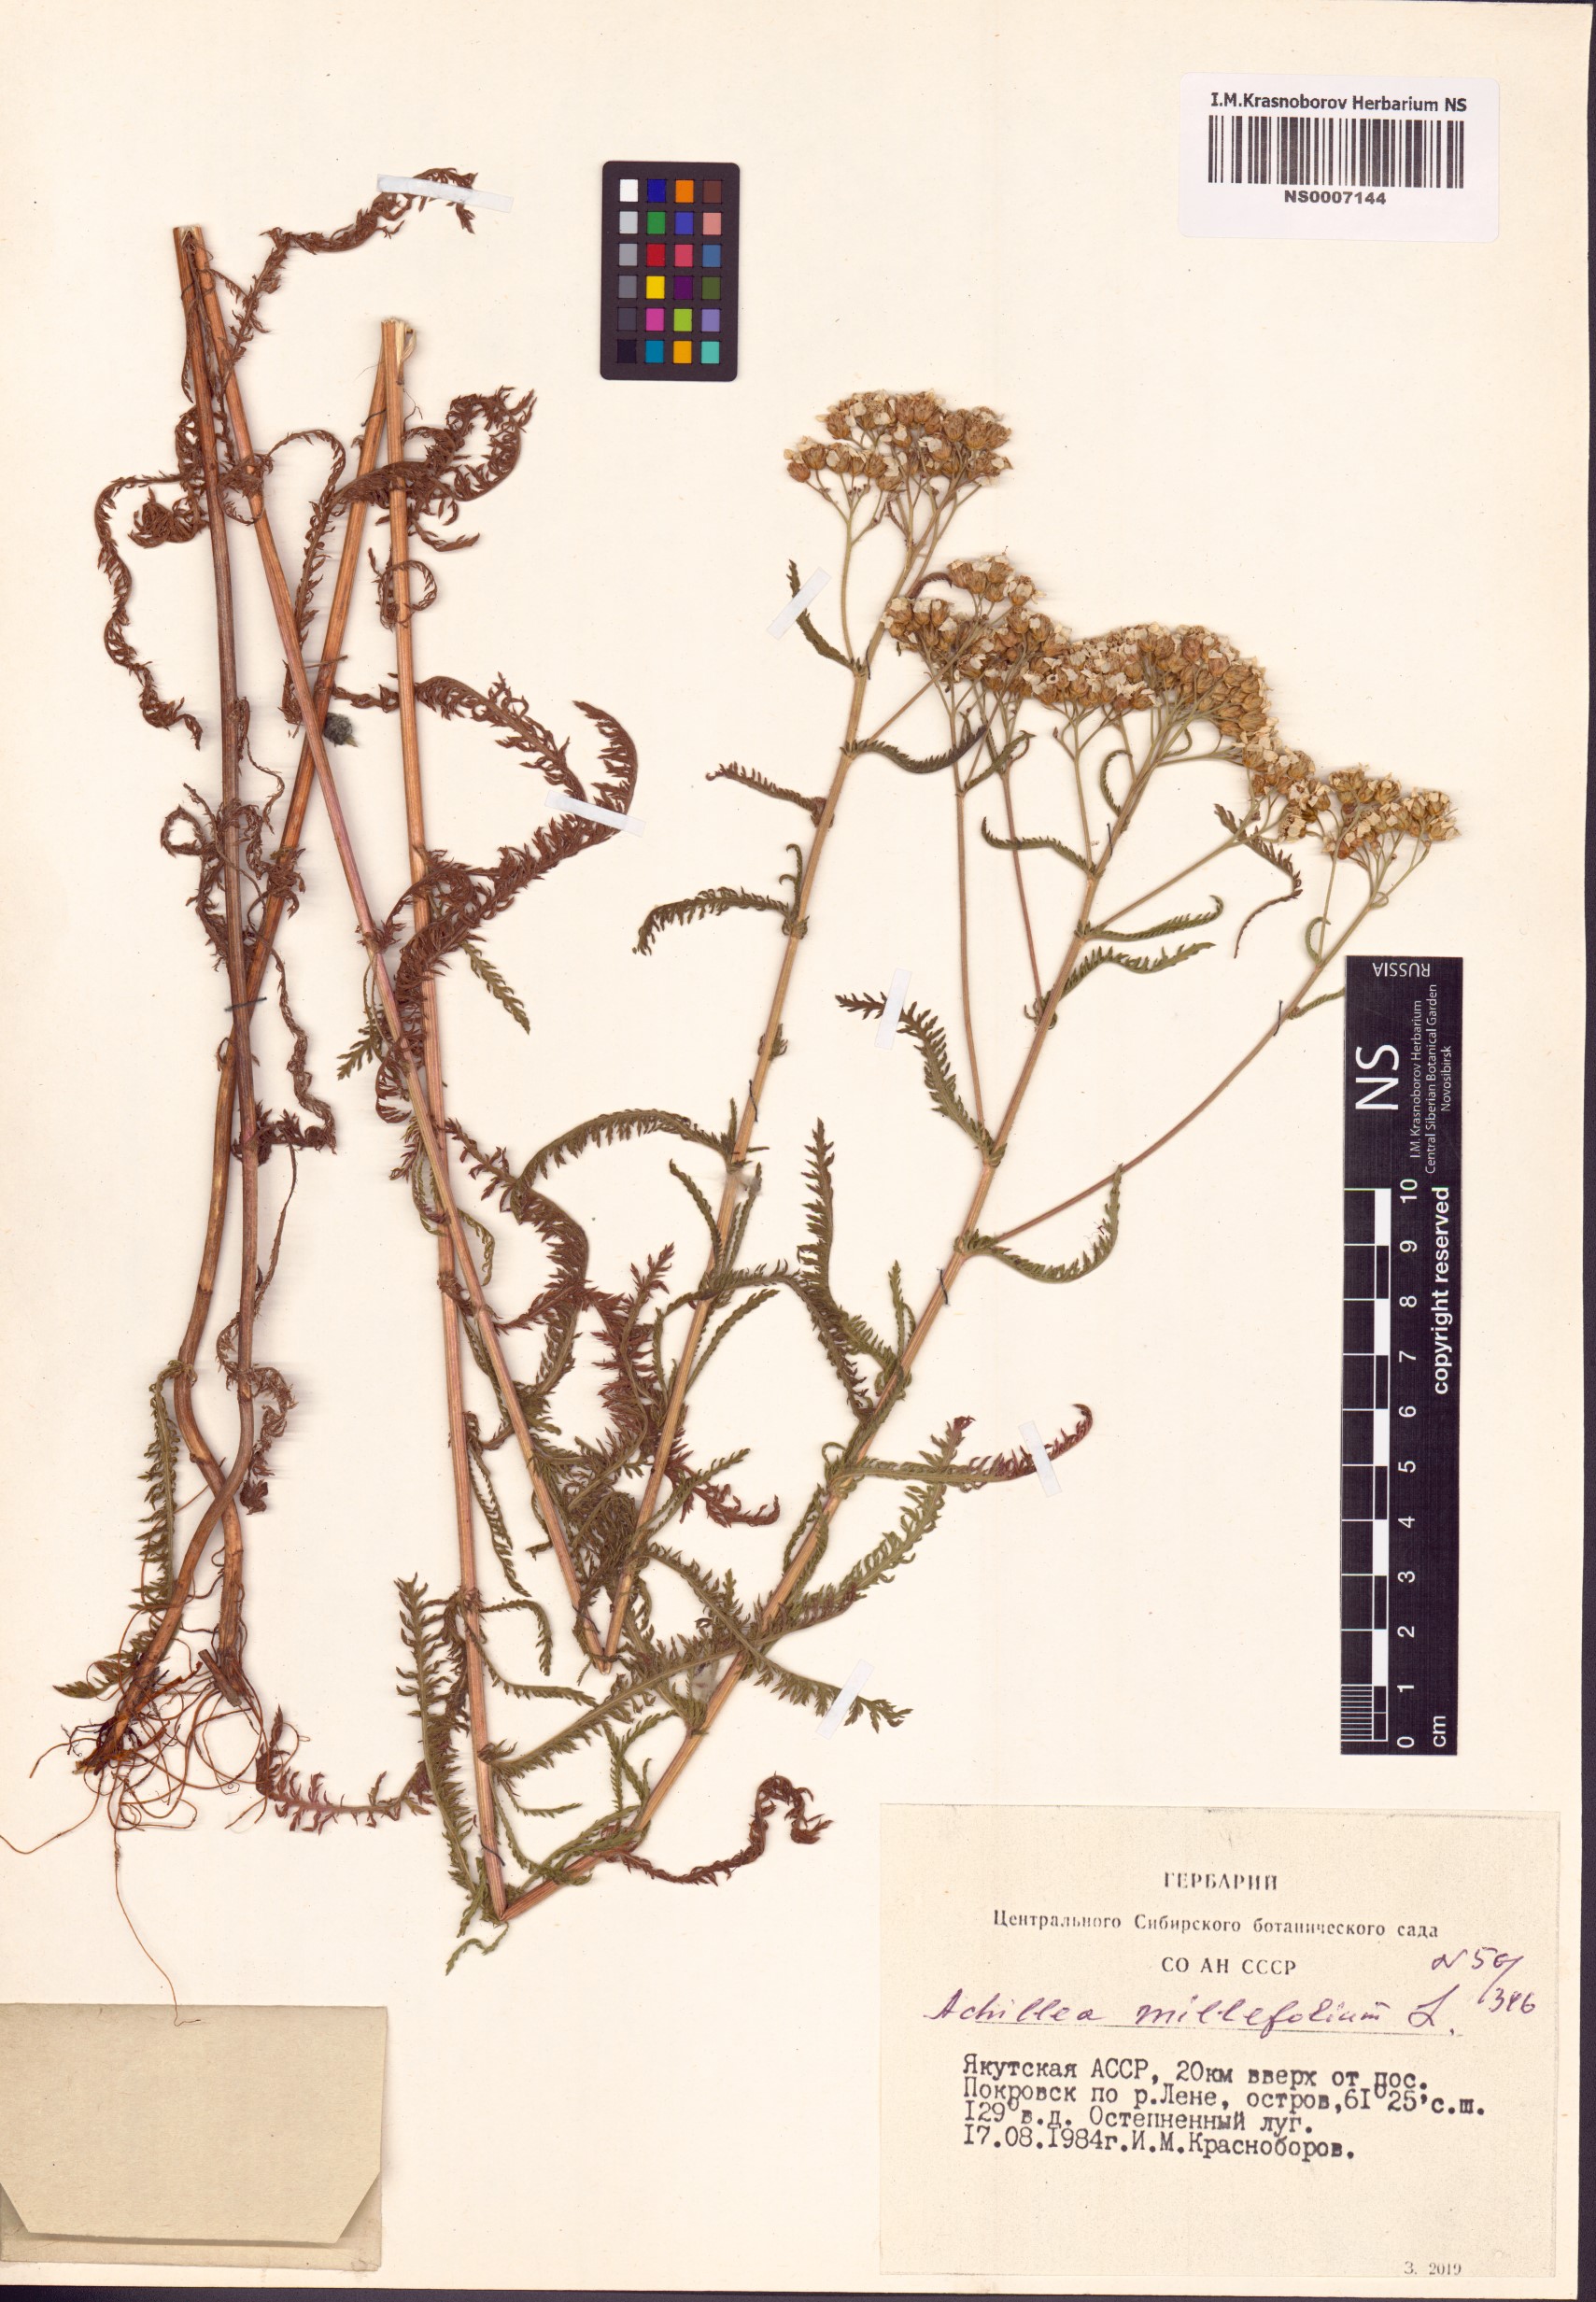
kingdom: Plantae
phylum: Tracheophyta
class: Magnoliopsida
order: Asterales
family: Asteraceae
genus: Achillea
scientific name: Achillea millefolium
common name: Yarrow
